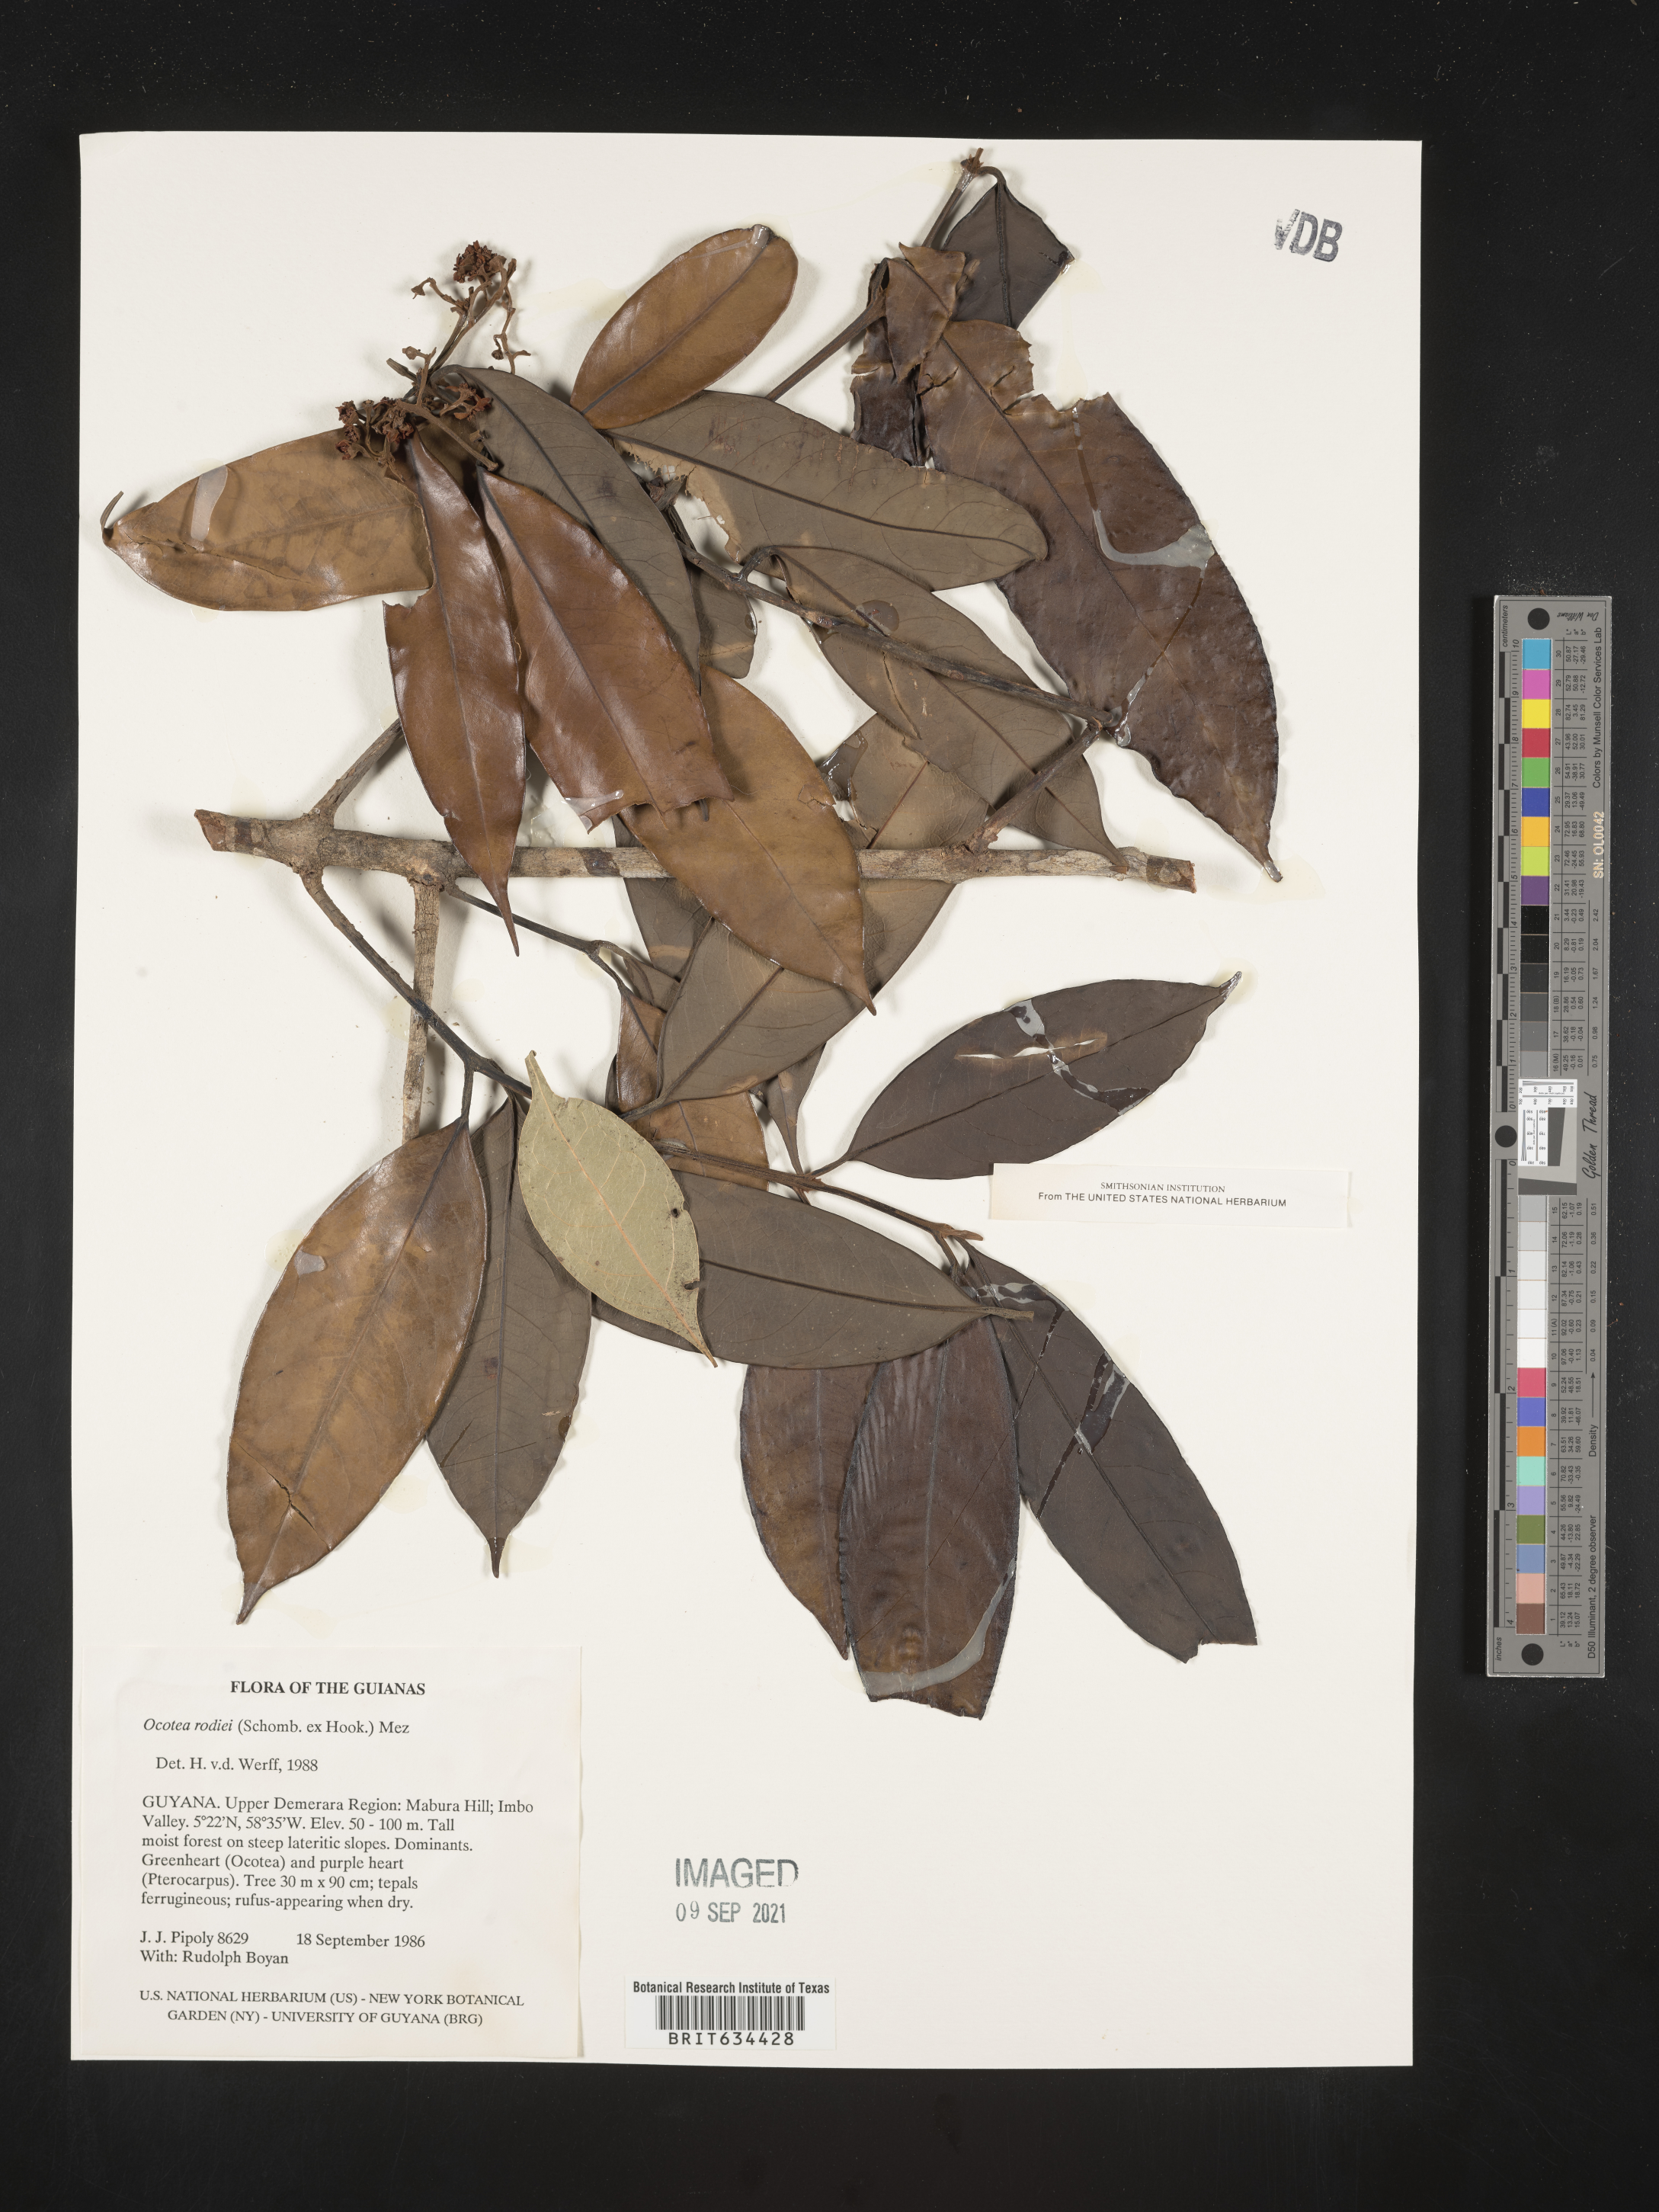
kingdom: Plantae
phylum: Tracheophyta
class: Magnoliopsida
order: Laurales
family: Lauraceae
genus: Ocotea
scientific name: Ocotea
